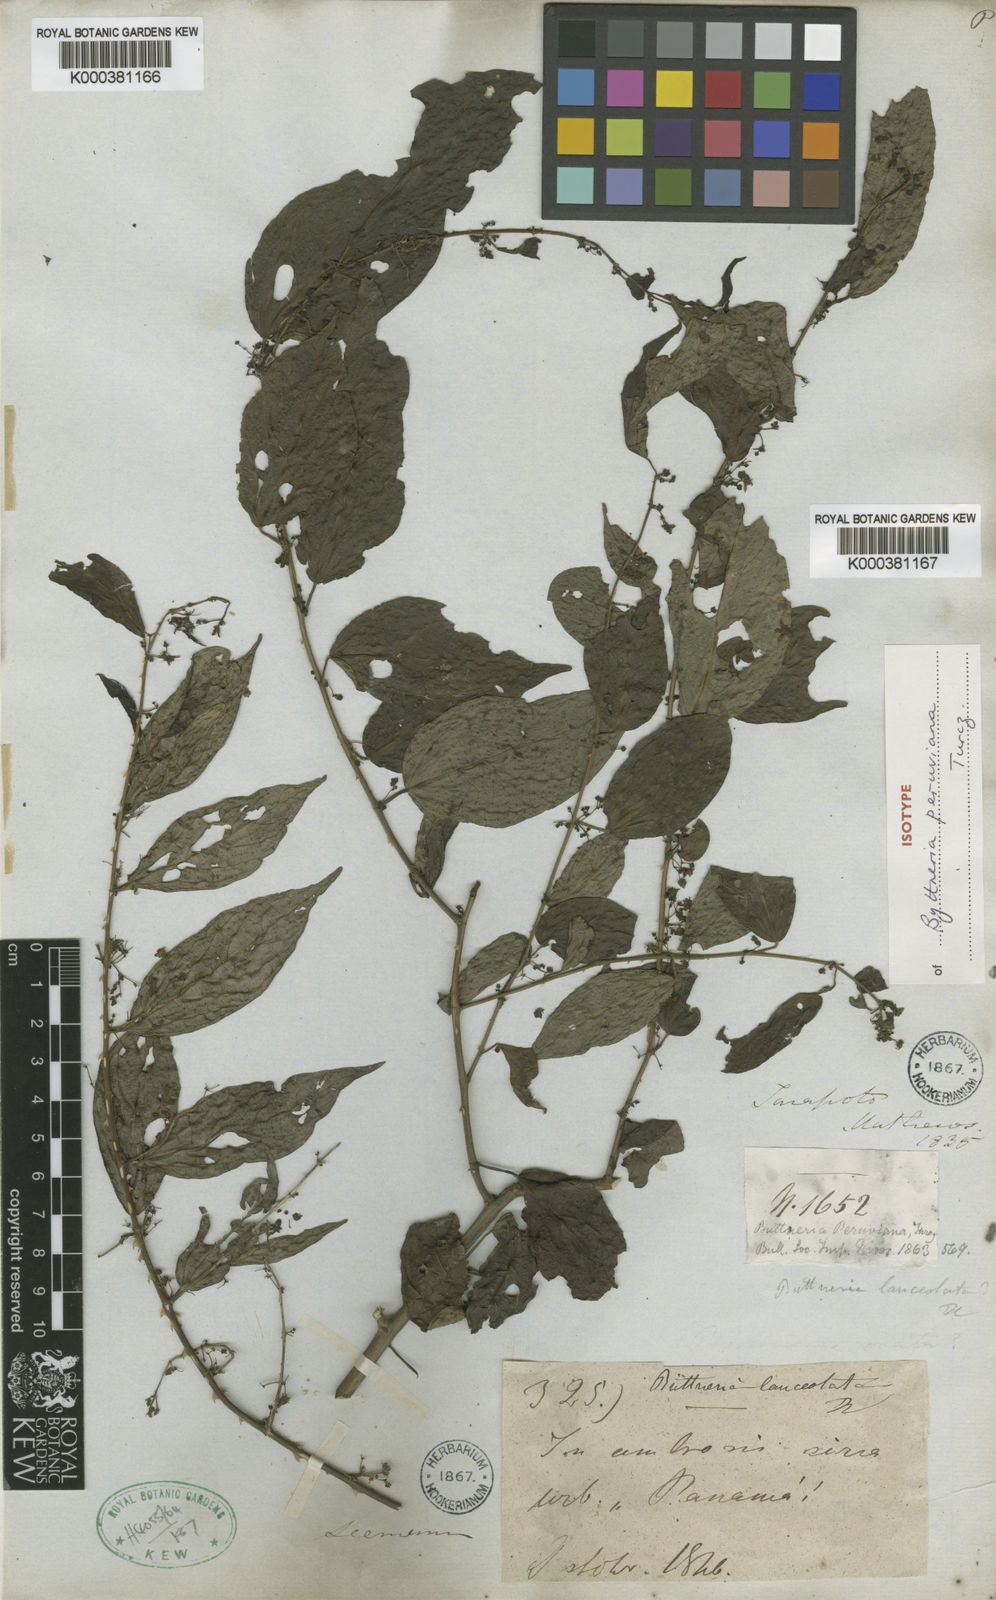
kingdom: Plantae
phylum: Tracheophyta
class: Magnoliopsida
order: Malvales
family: Malvaceae
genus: Byttneria
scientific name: Byttneria aculeata
